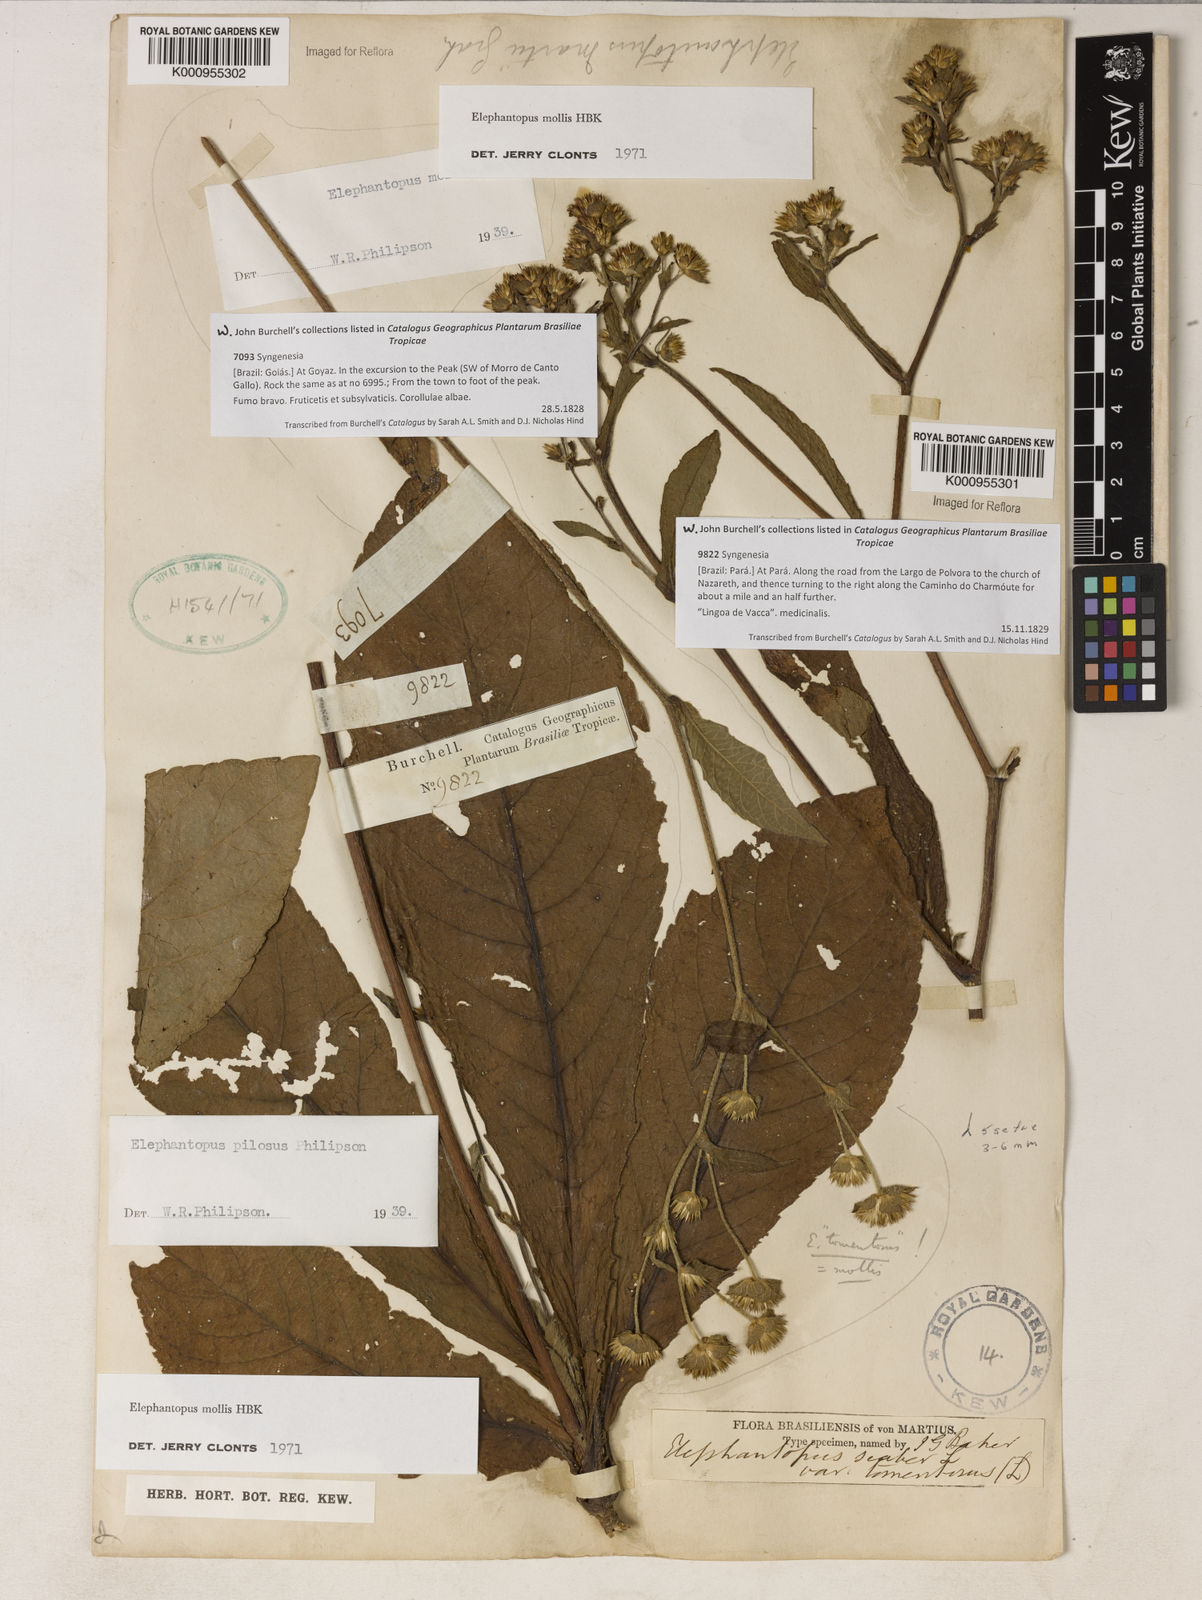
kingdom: Plantae
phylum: Tracheophyta
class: Magnoliopsida
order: Asterales
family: Asteraceae
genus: Elephantopus
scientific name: Elephantopus mollis
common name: Soft elephantsfoot
